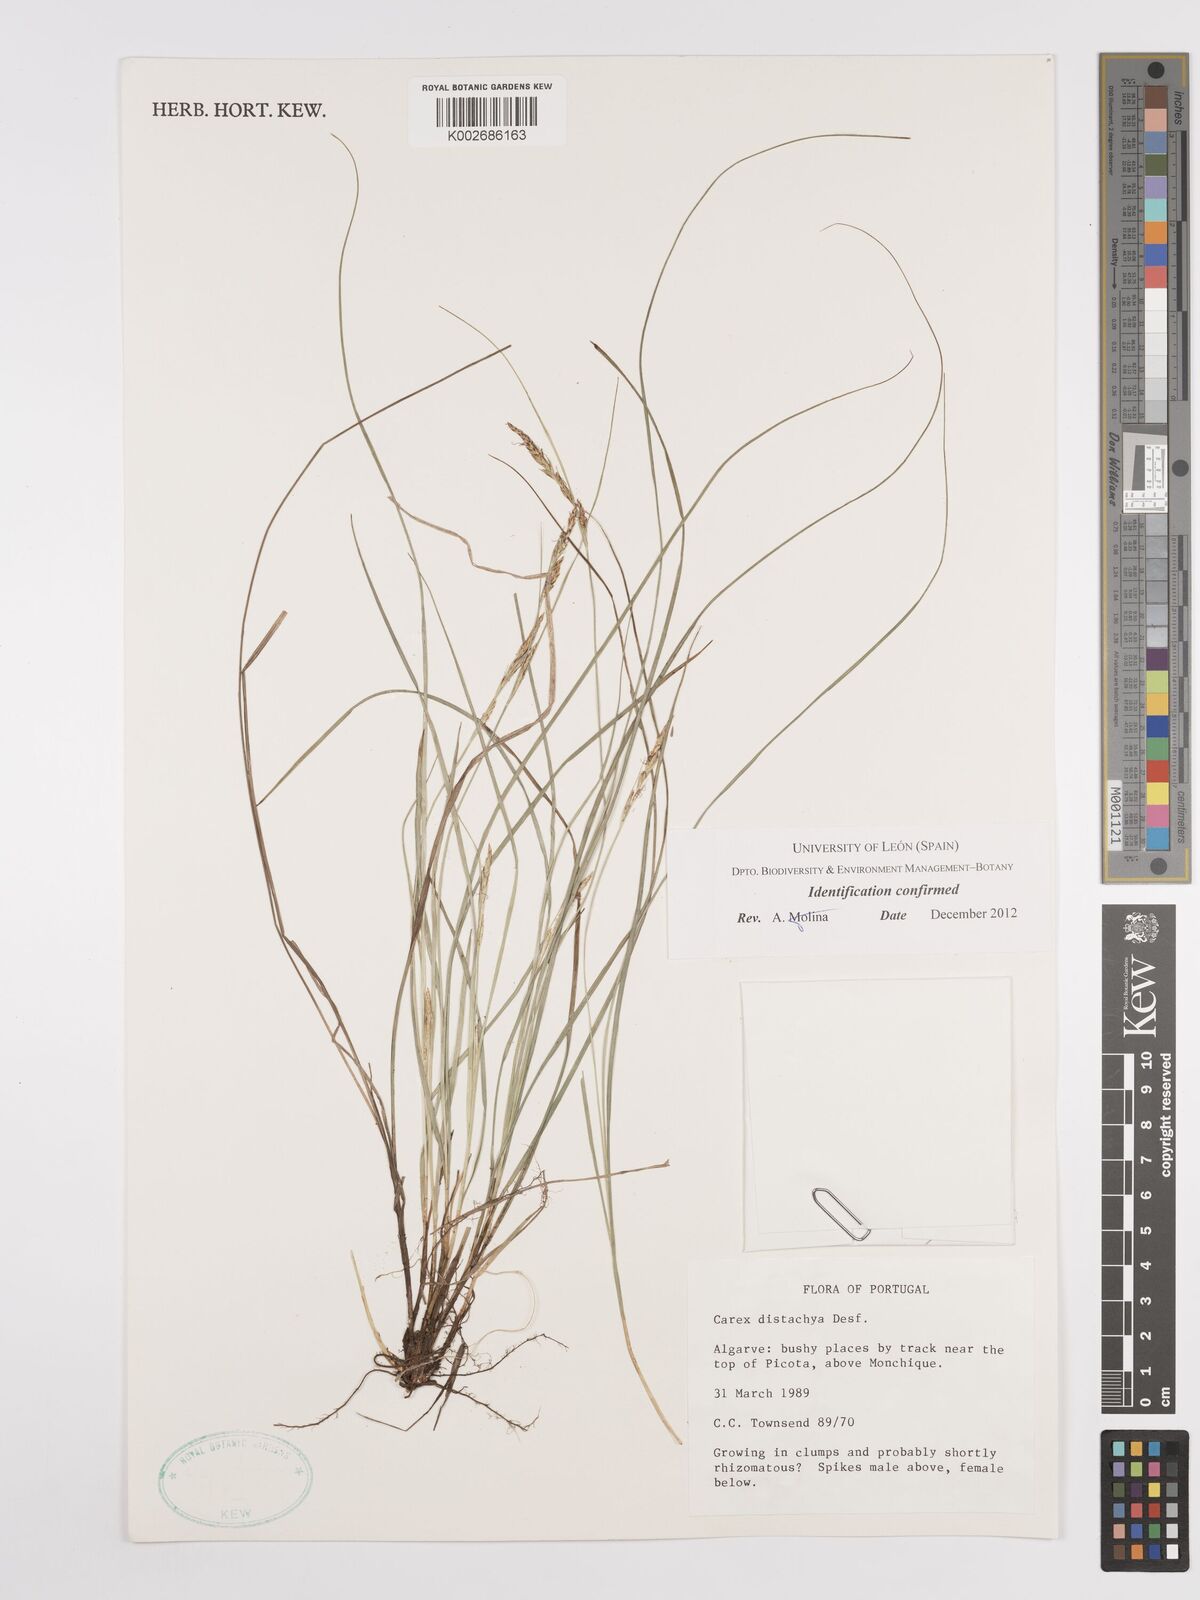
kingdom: Plantae
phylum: Tracheophyta
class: Liliopsida
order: Poales
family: Cyperaceae
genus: Carex
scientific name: Carex distachya
